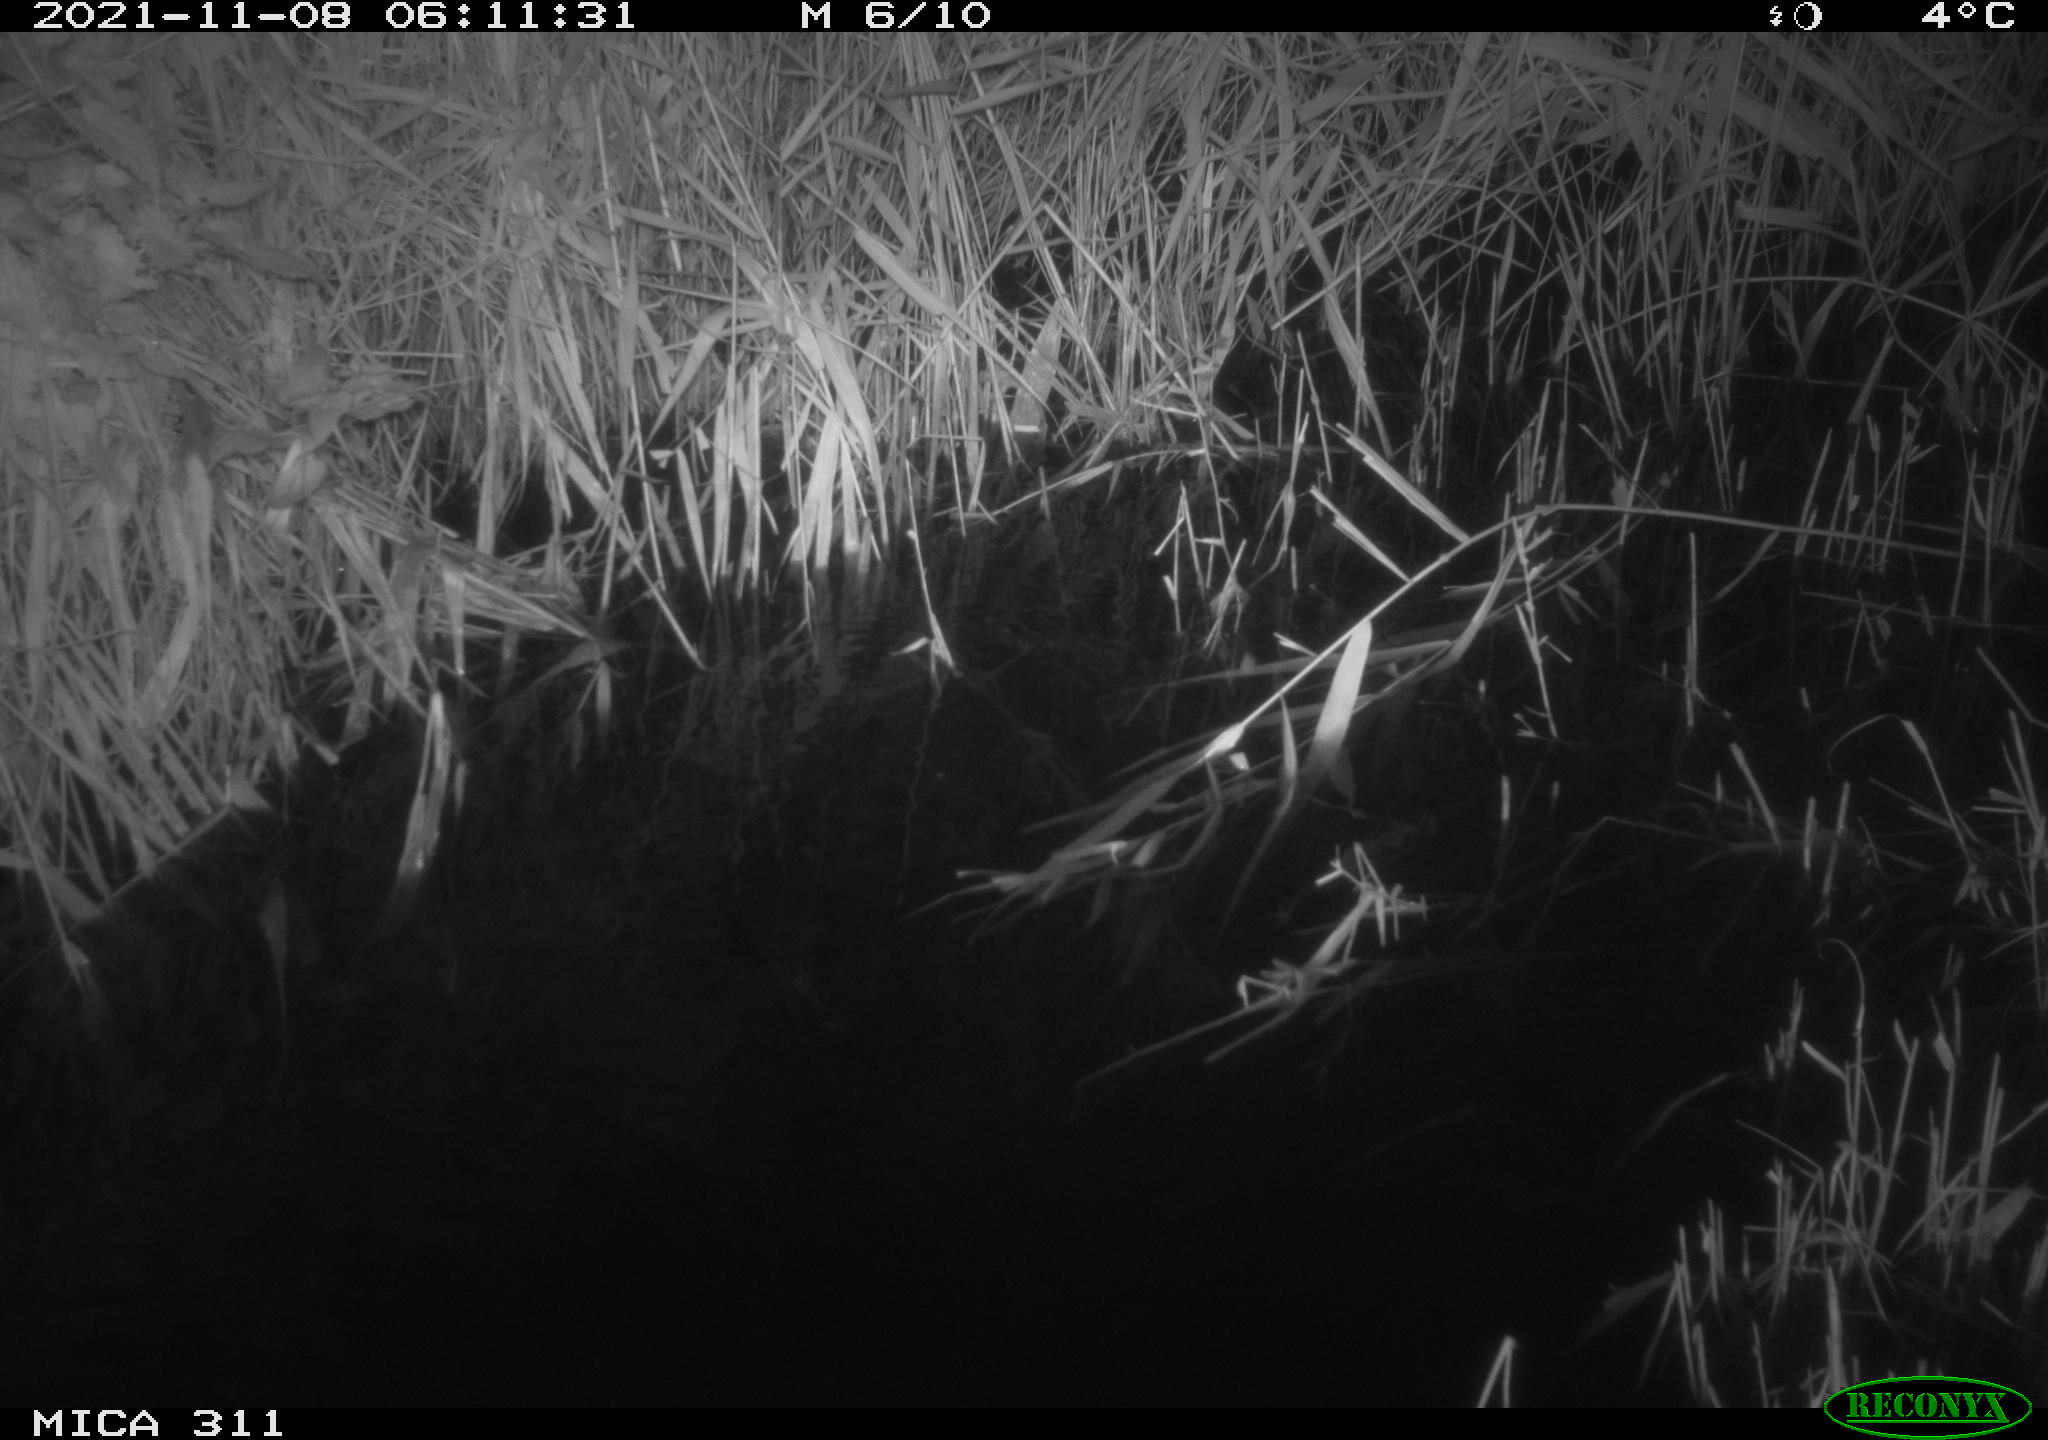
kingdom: Animalia
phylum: Chordata
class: Mammalia
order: Rodentia
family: Muridae
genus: Rattus
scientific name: Rattus norvegicus
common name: Brown rat
